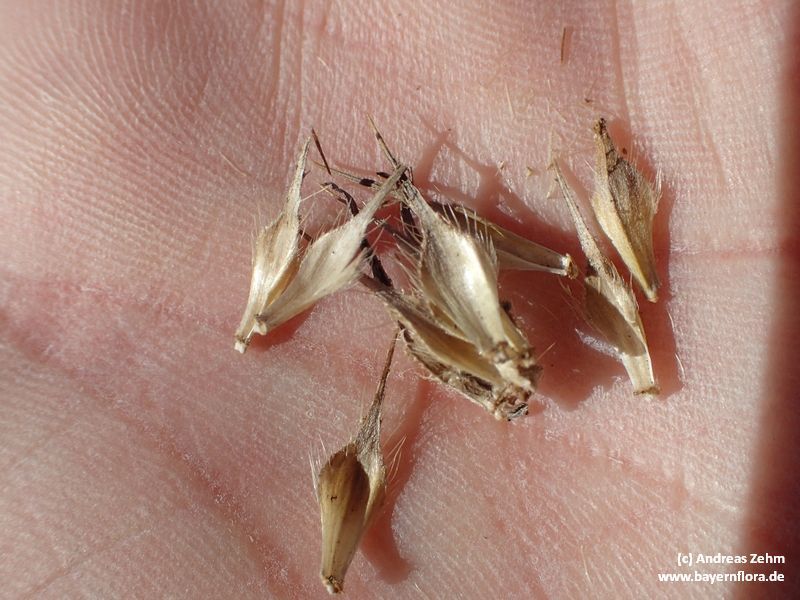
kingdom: Plantae
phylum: Tracheophyta
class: Magnoliopsida
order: Dipsacales
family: Caprifoliaceae
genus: Dipsacus
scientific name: Dipsacus strigosus
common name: Yellow-flowered teasel
